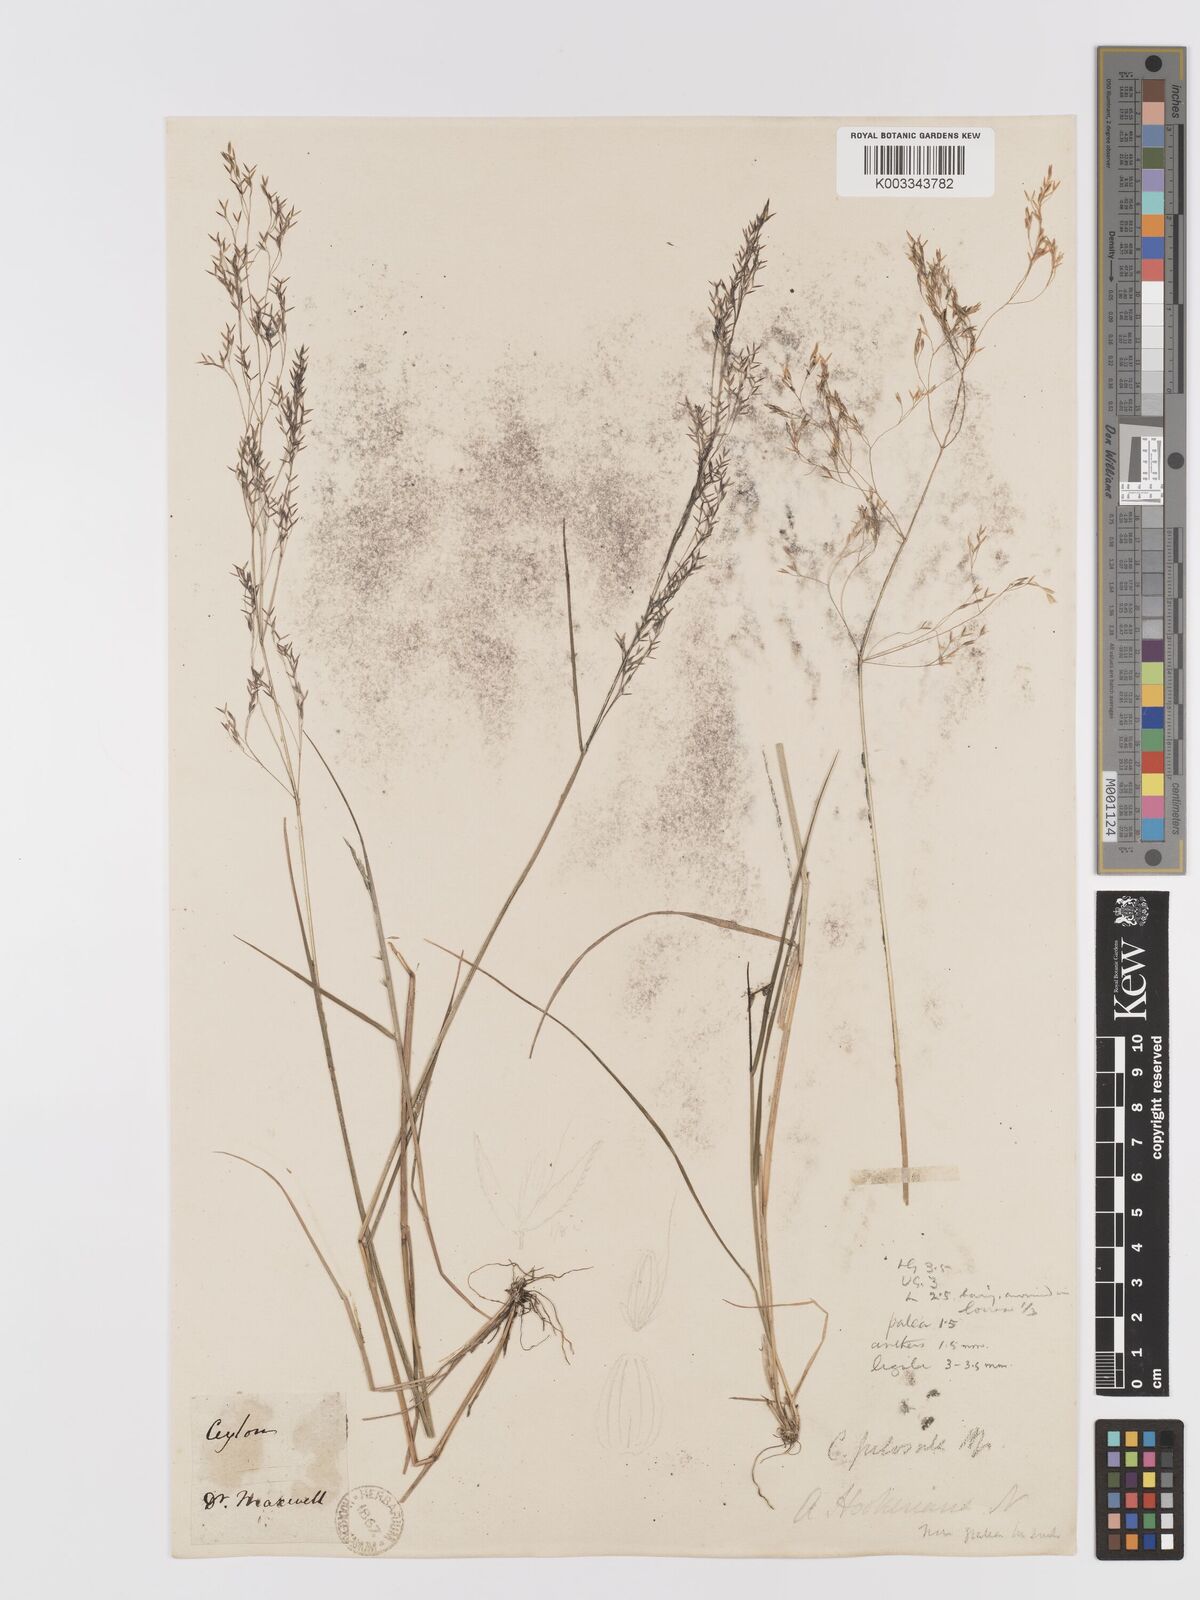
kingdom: Plantae
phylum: Tracheophyta
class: Liliopsida
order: Poales
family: Poaceae
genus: Agrostis
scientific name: Agrostis pilosula
